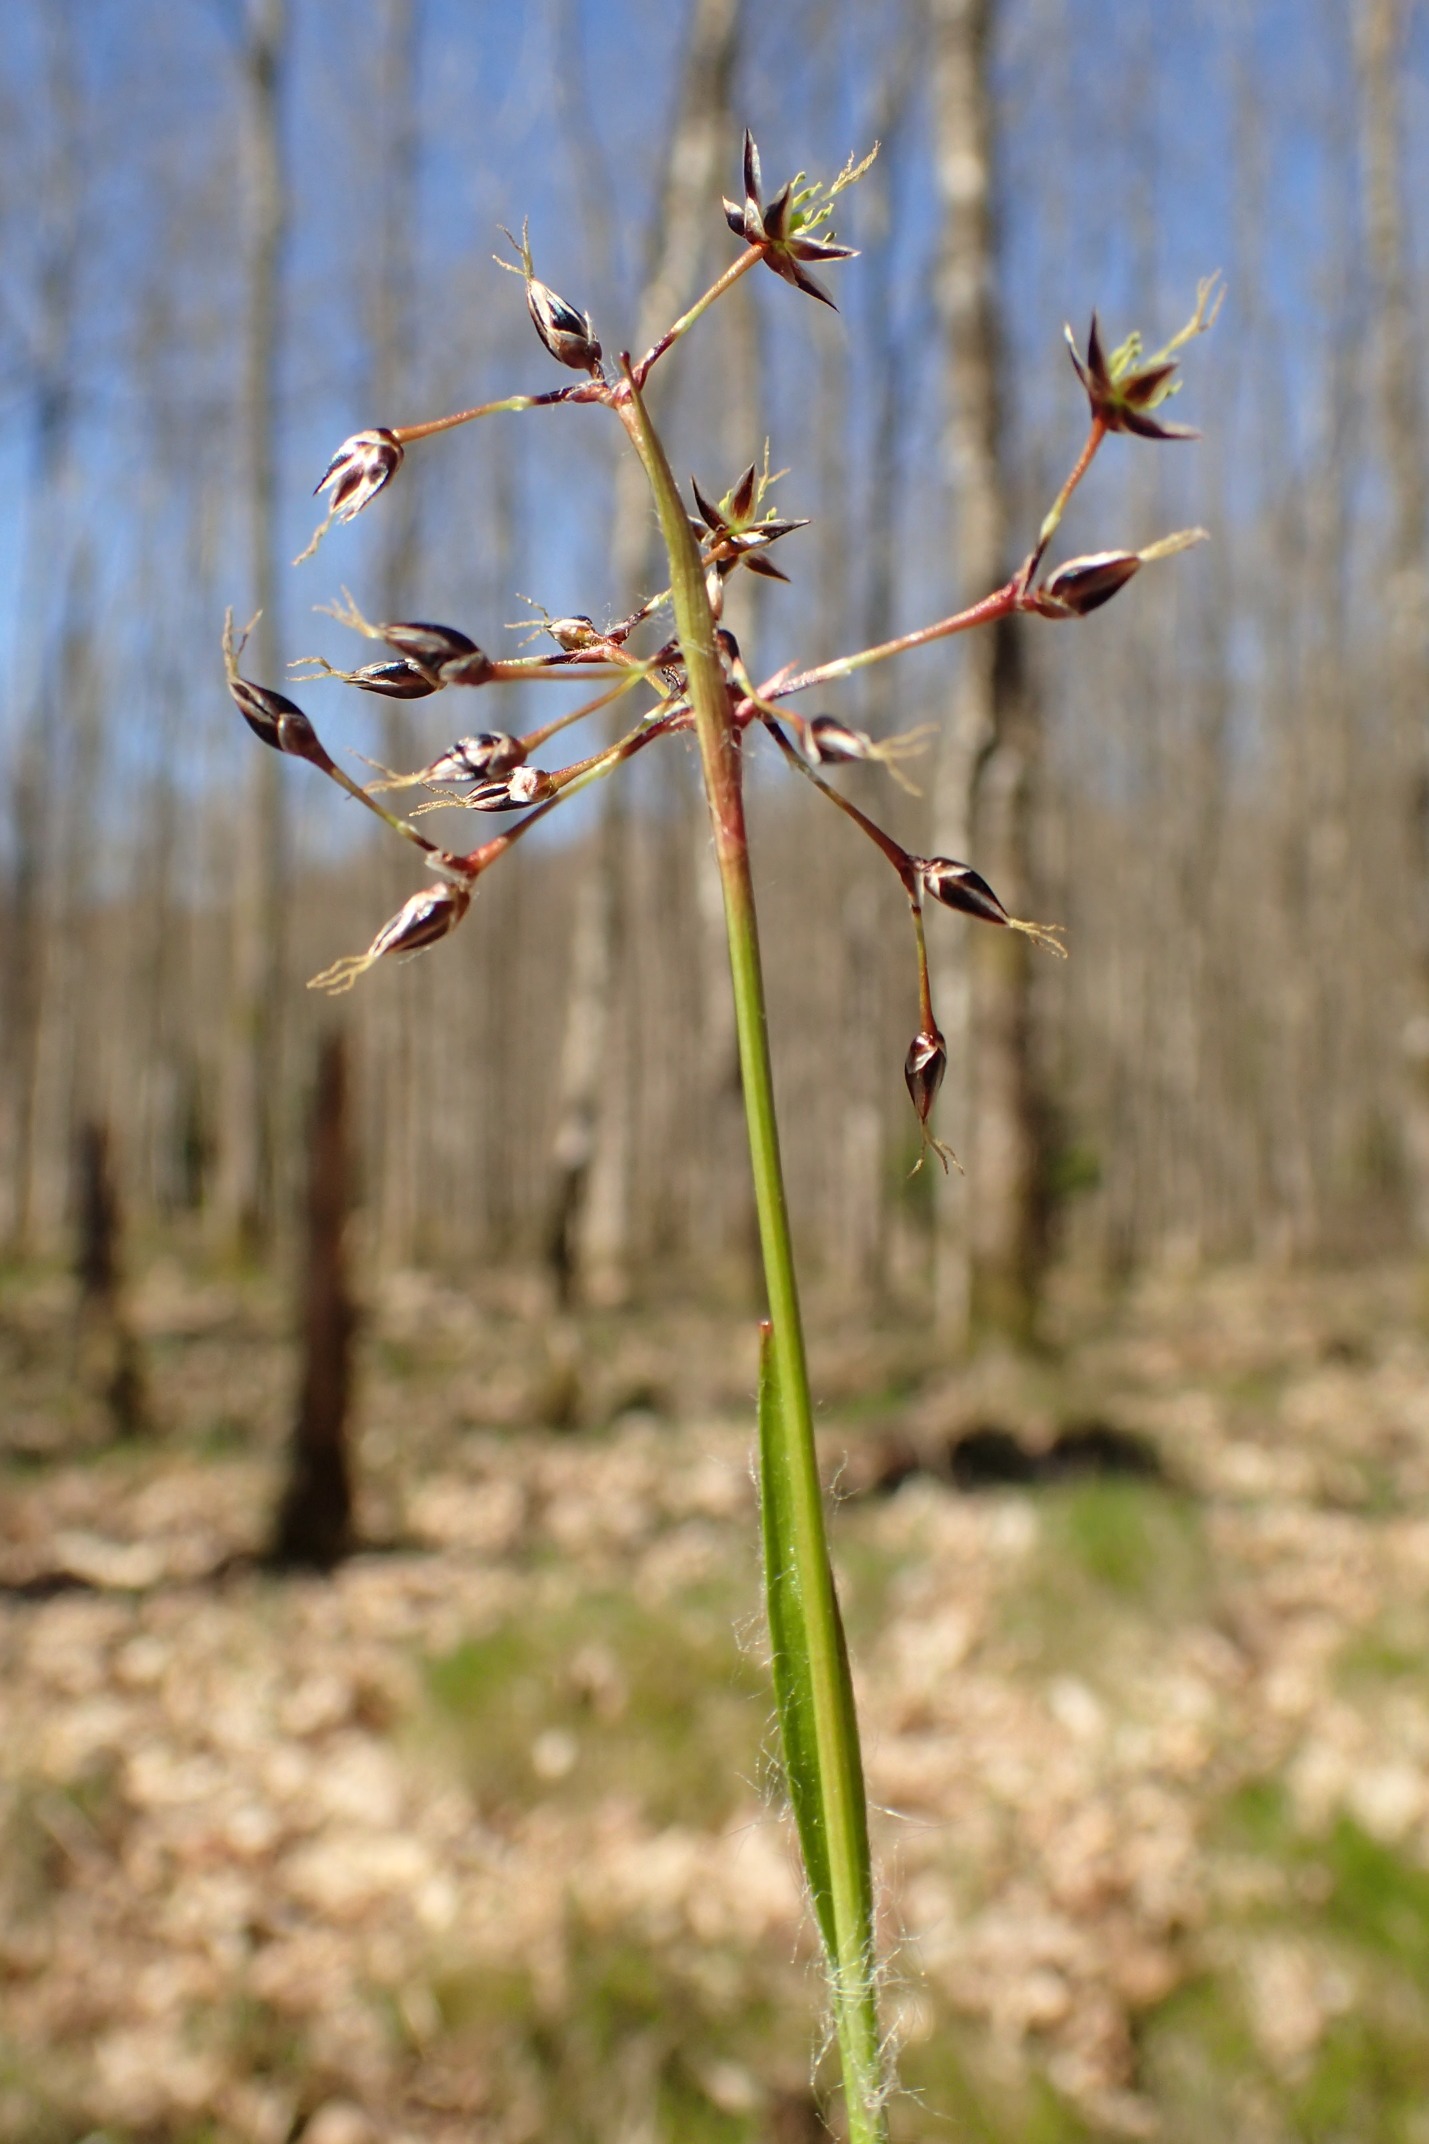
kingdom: Plantae
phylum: Tracheophyta
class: Liliopsida
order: Poales
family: Juncaceae
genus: Luzula
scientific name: Luzula pilosa
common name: Håret frytle
